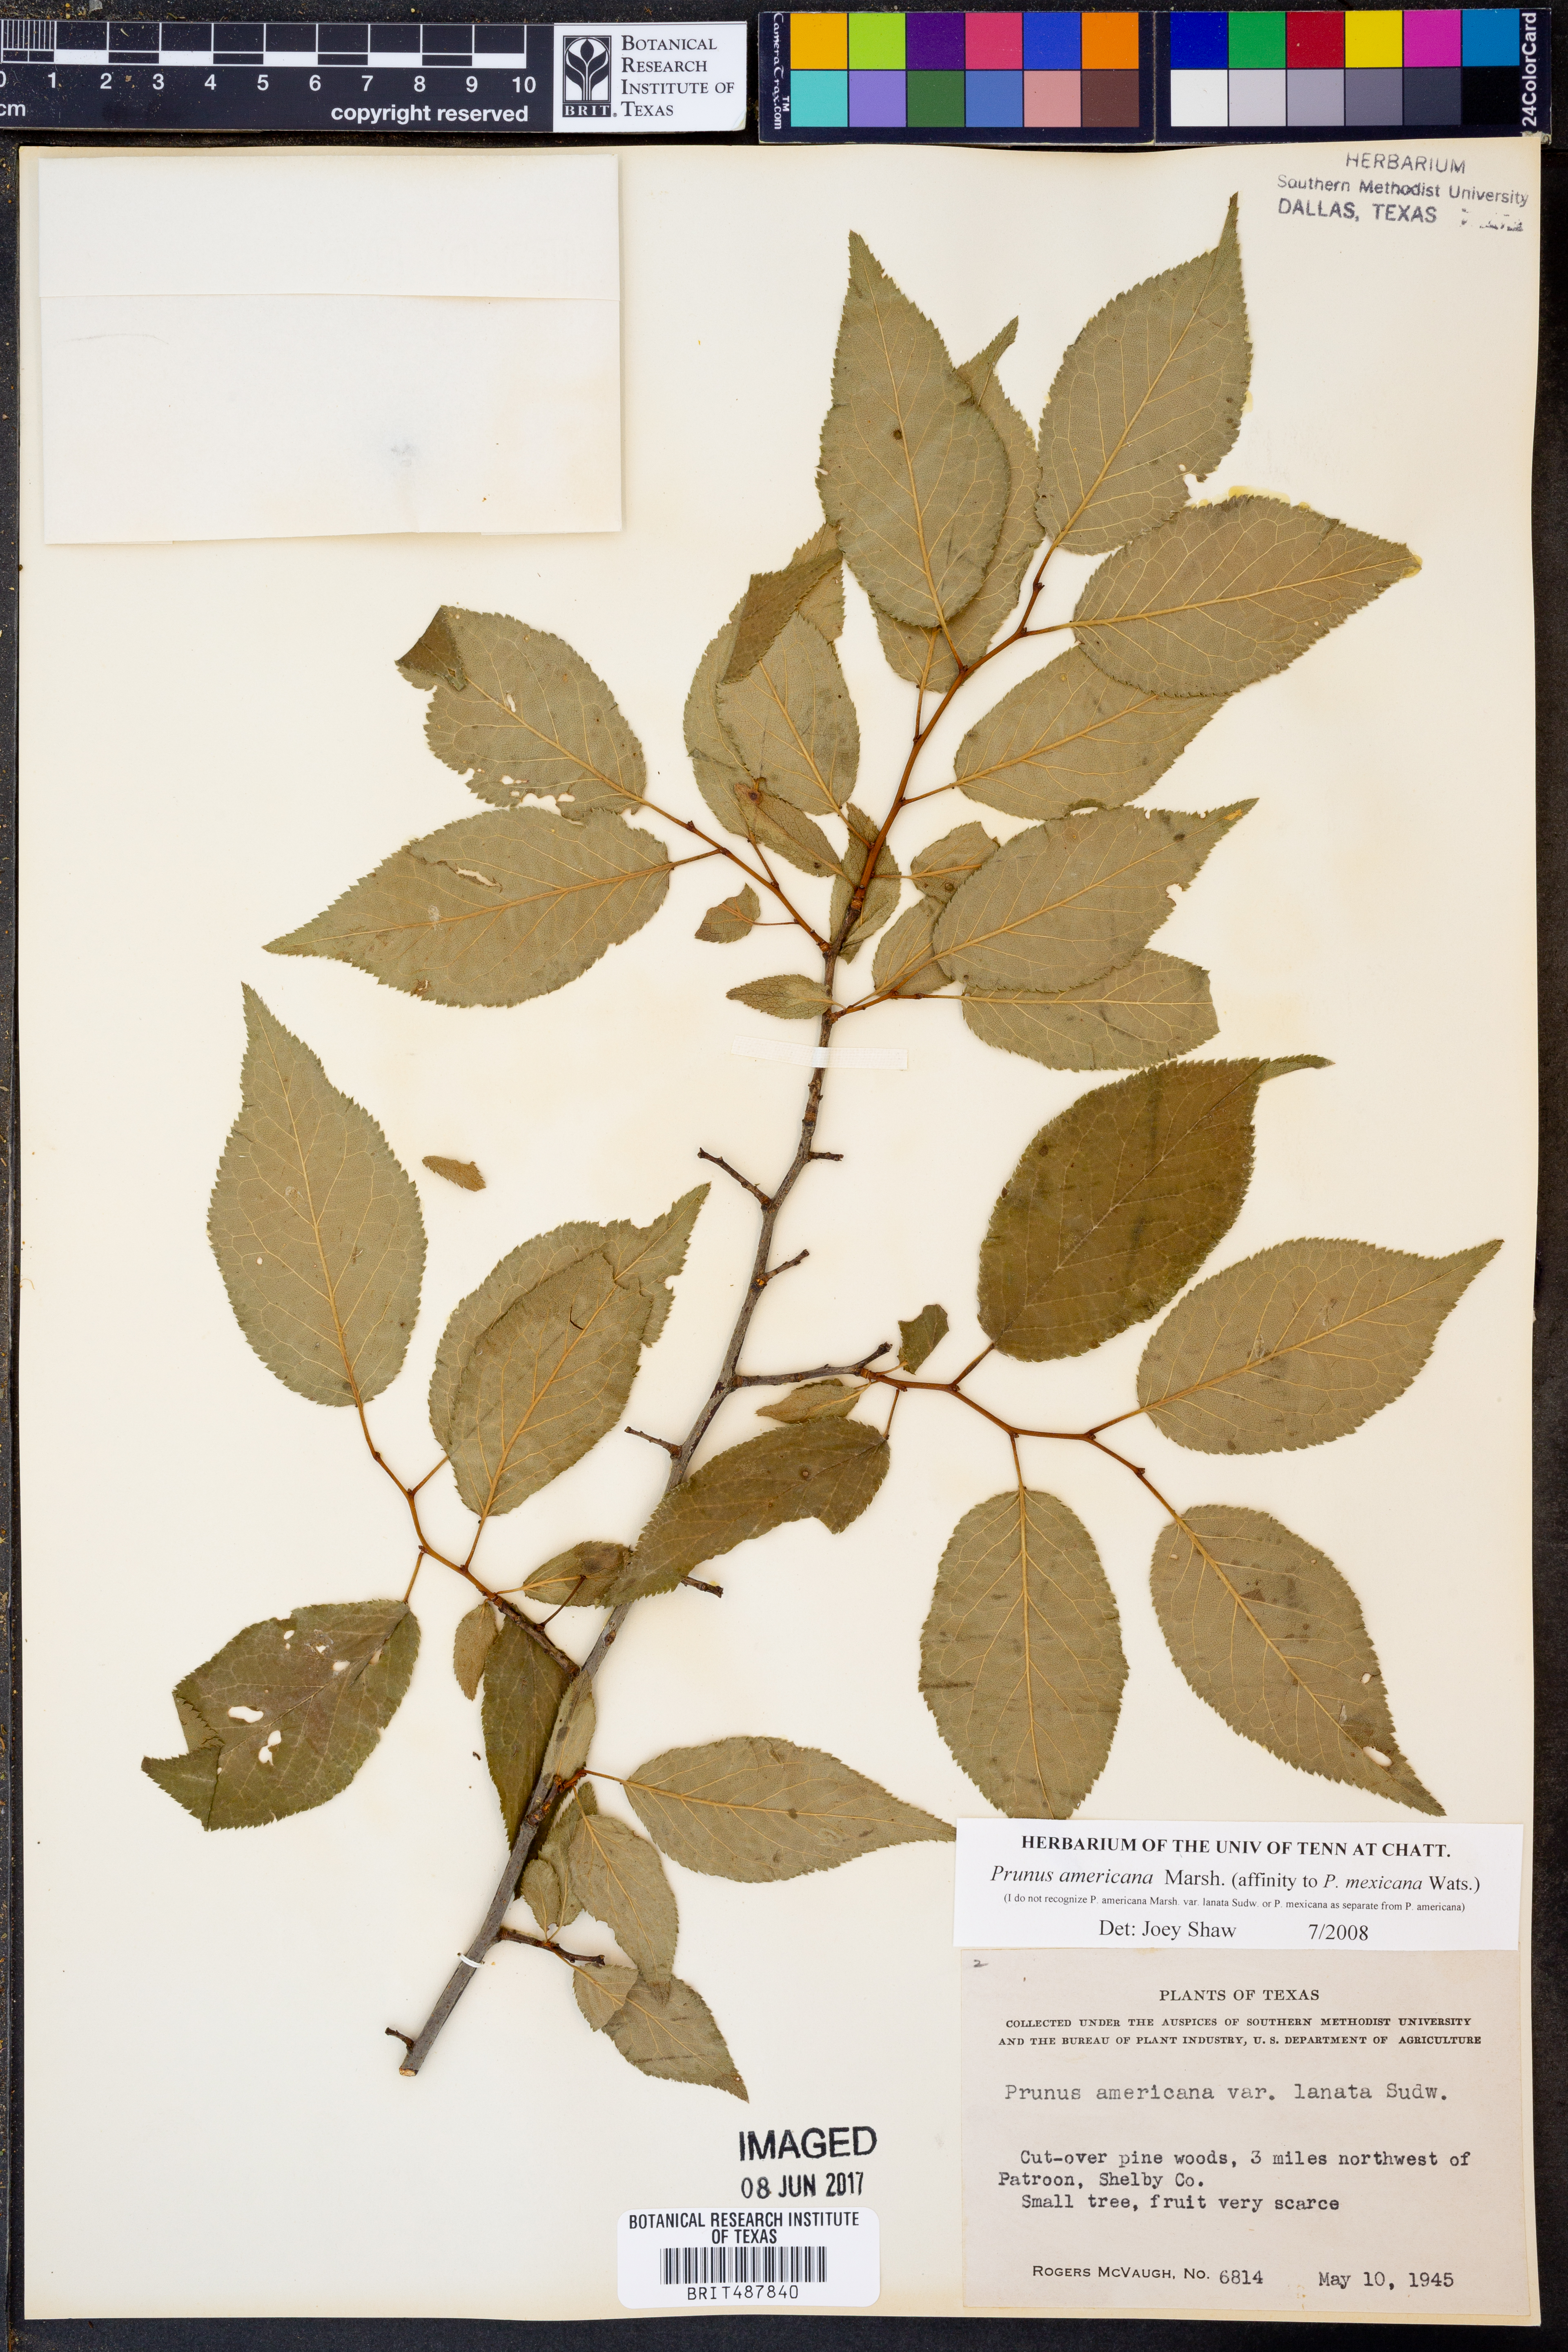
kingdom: Plantae
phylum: Tracheophyta
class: Magnoliopsida
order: Rosales
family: Rosaceae
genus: Prunus
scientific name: Prunus americana
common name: American plum
